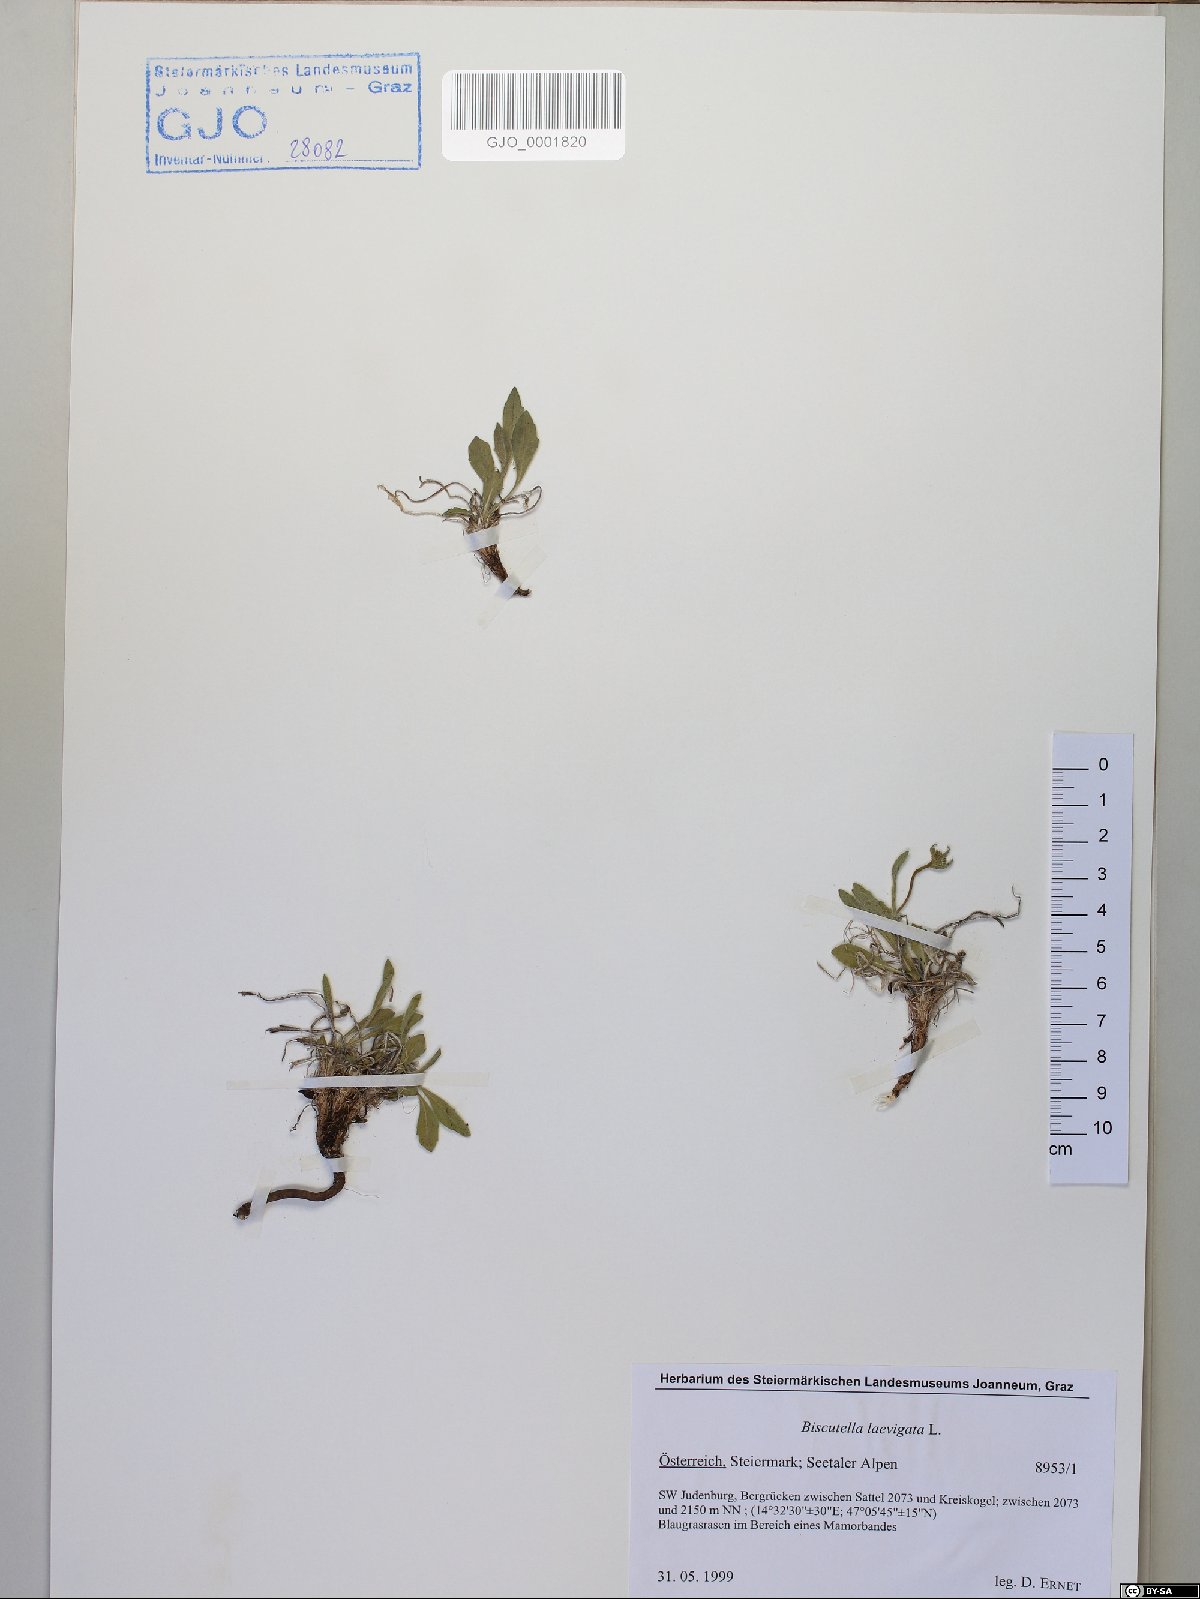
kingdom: Plantae
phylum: Tracheophyta
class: Magnoliopsida
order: Brassicales
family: Brassicaceae
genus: Biscutella
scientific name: Biscutella laevigata
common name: Buckler mustard
